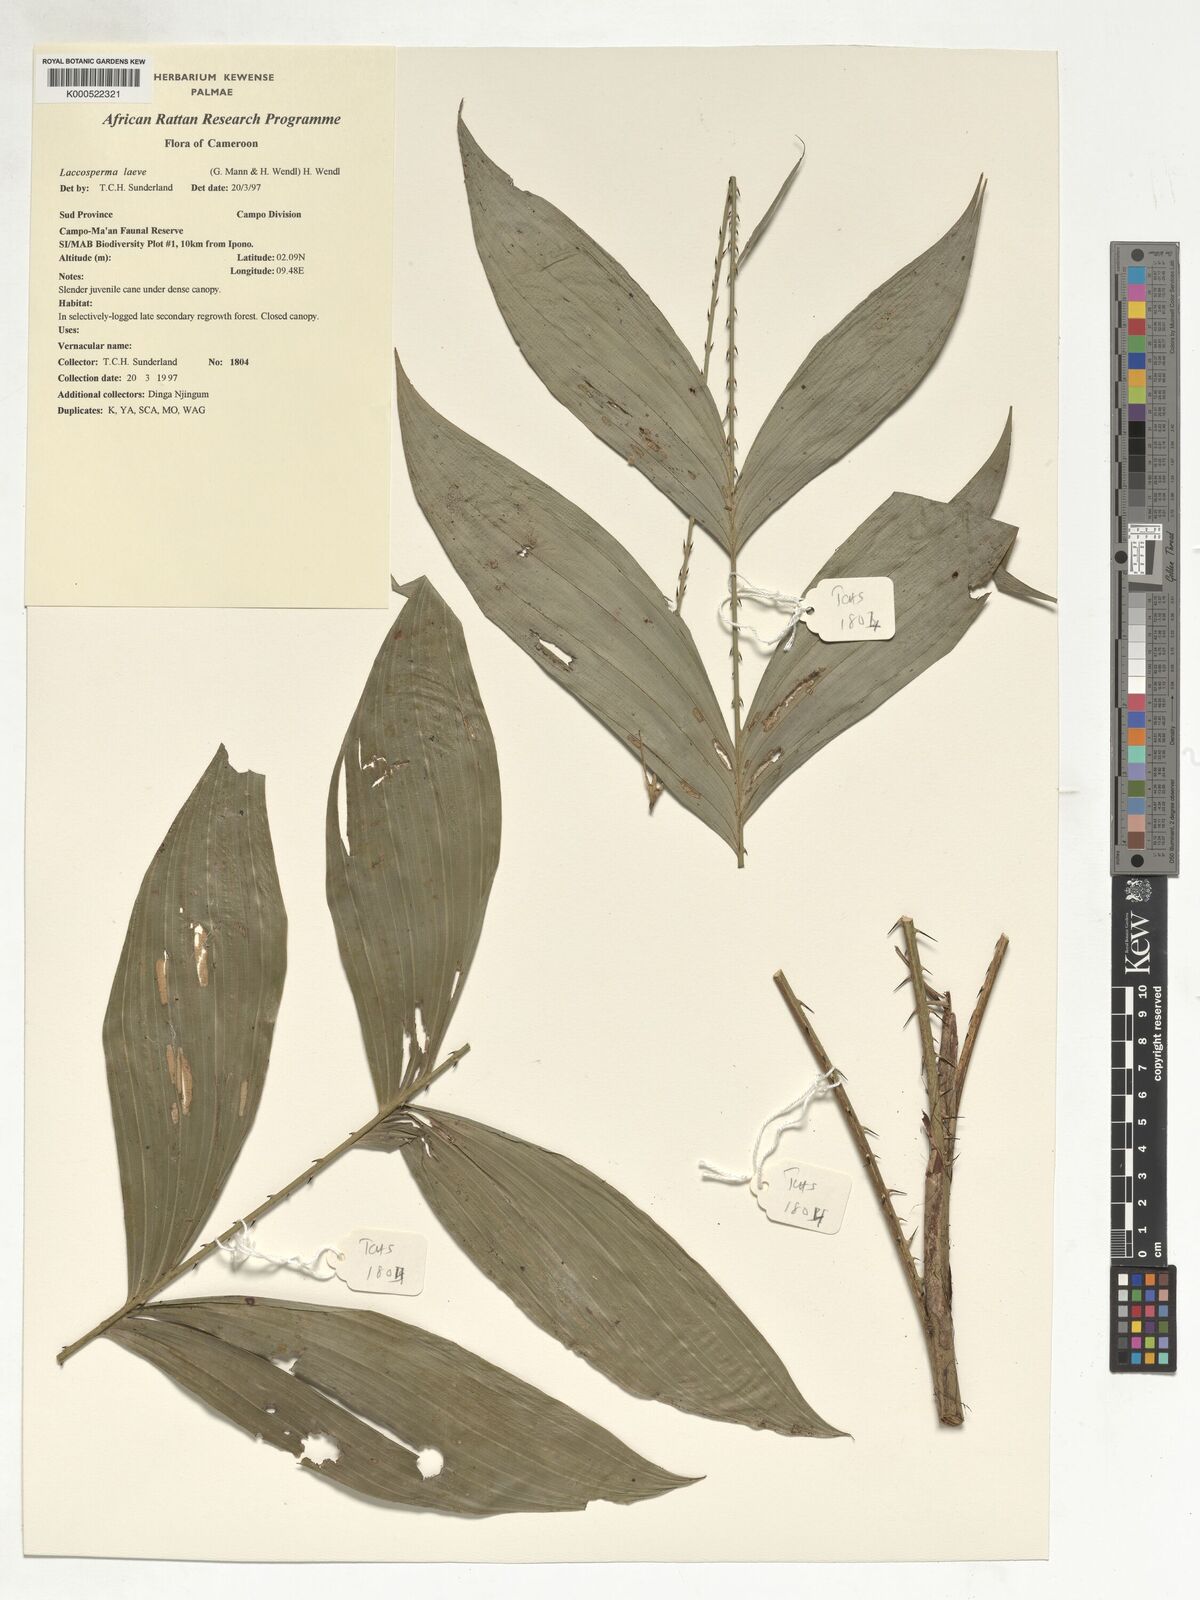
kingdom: Plantae
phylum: Tracheophyta
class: Liliopsida
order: Arecales
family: Arecaceae
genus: Laccosperma
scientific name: Laccosperma laeve
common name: Rattan
